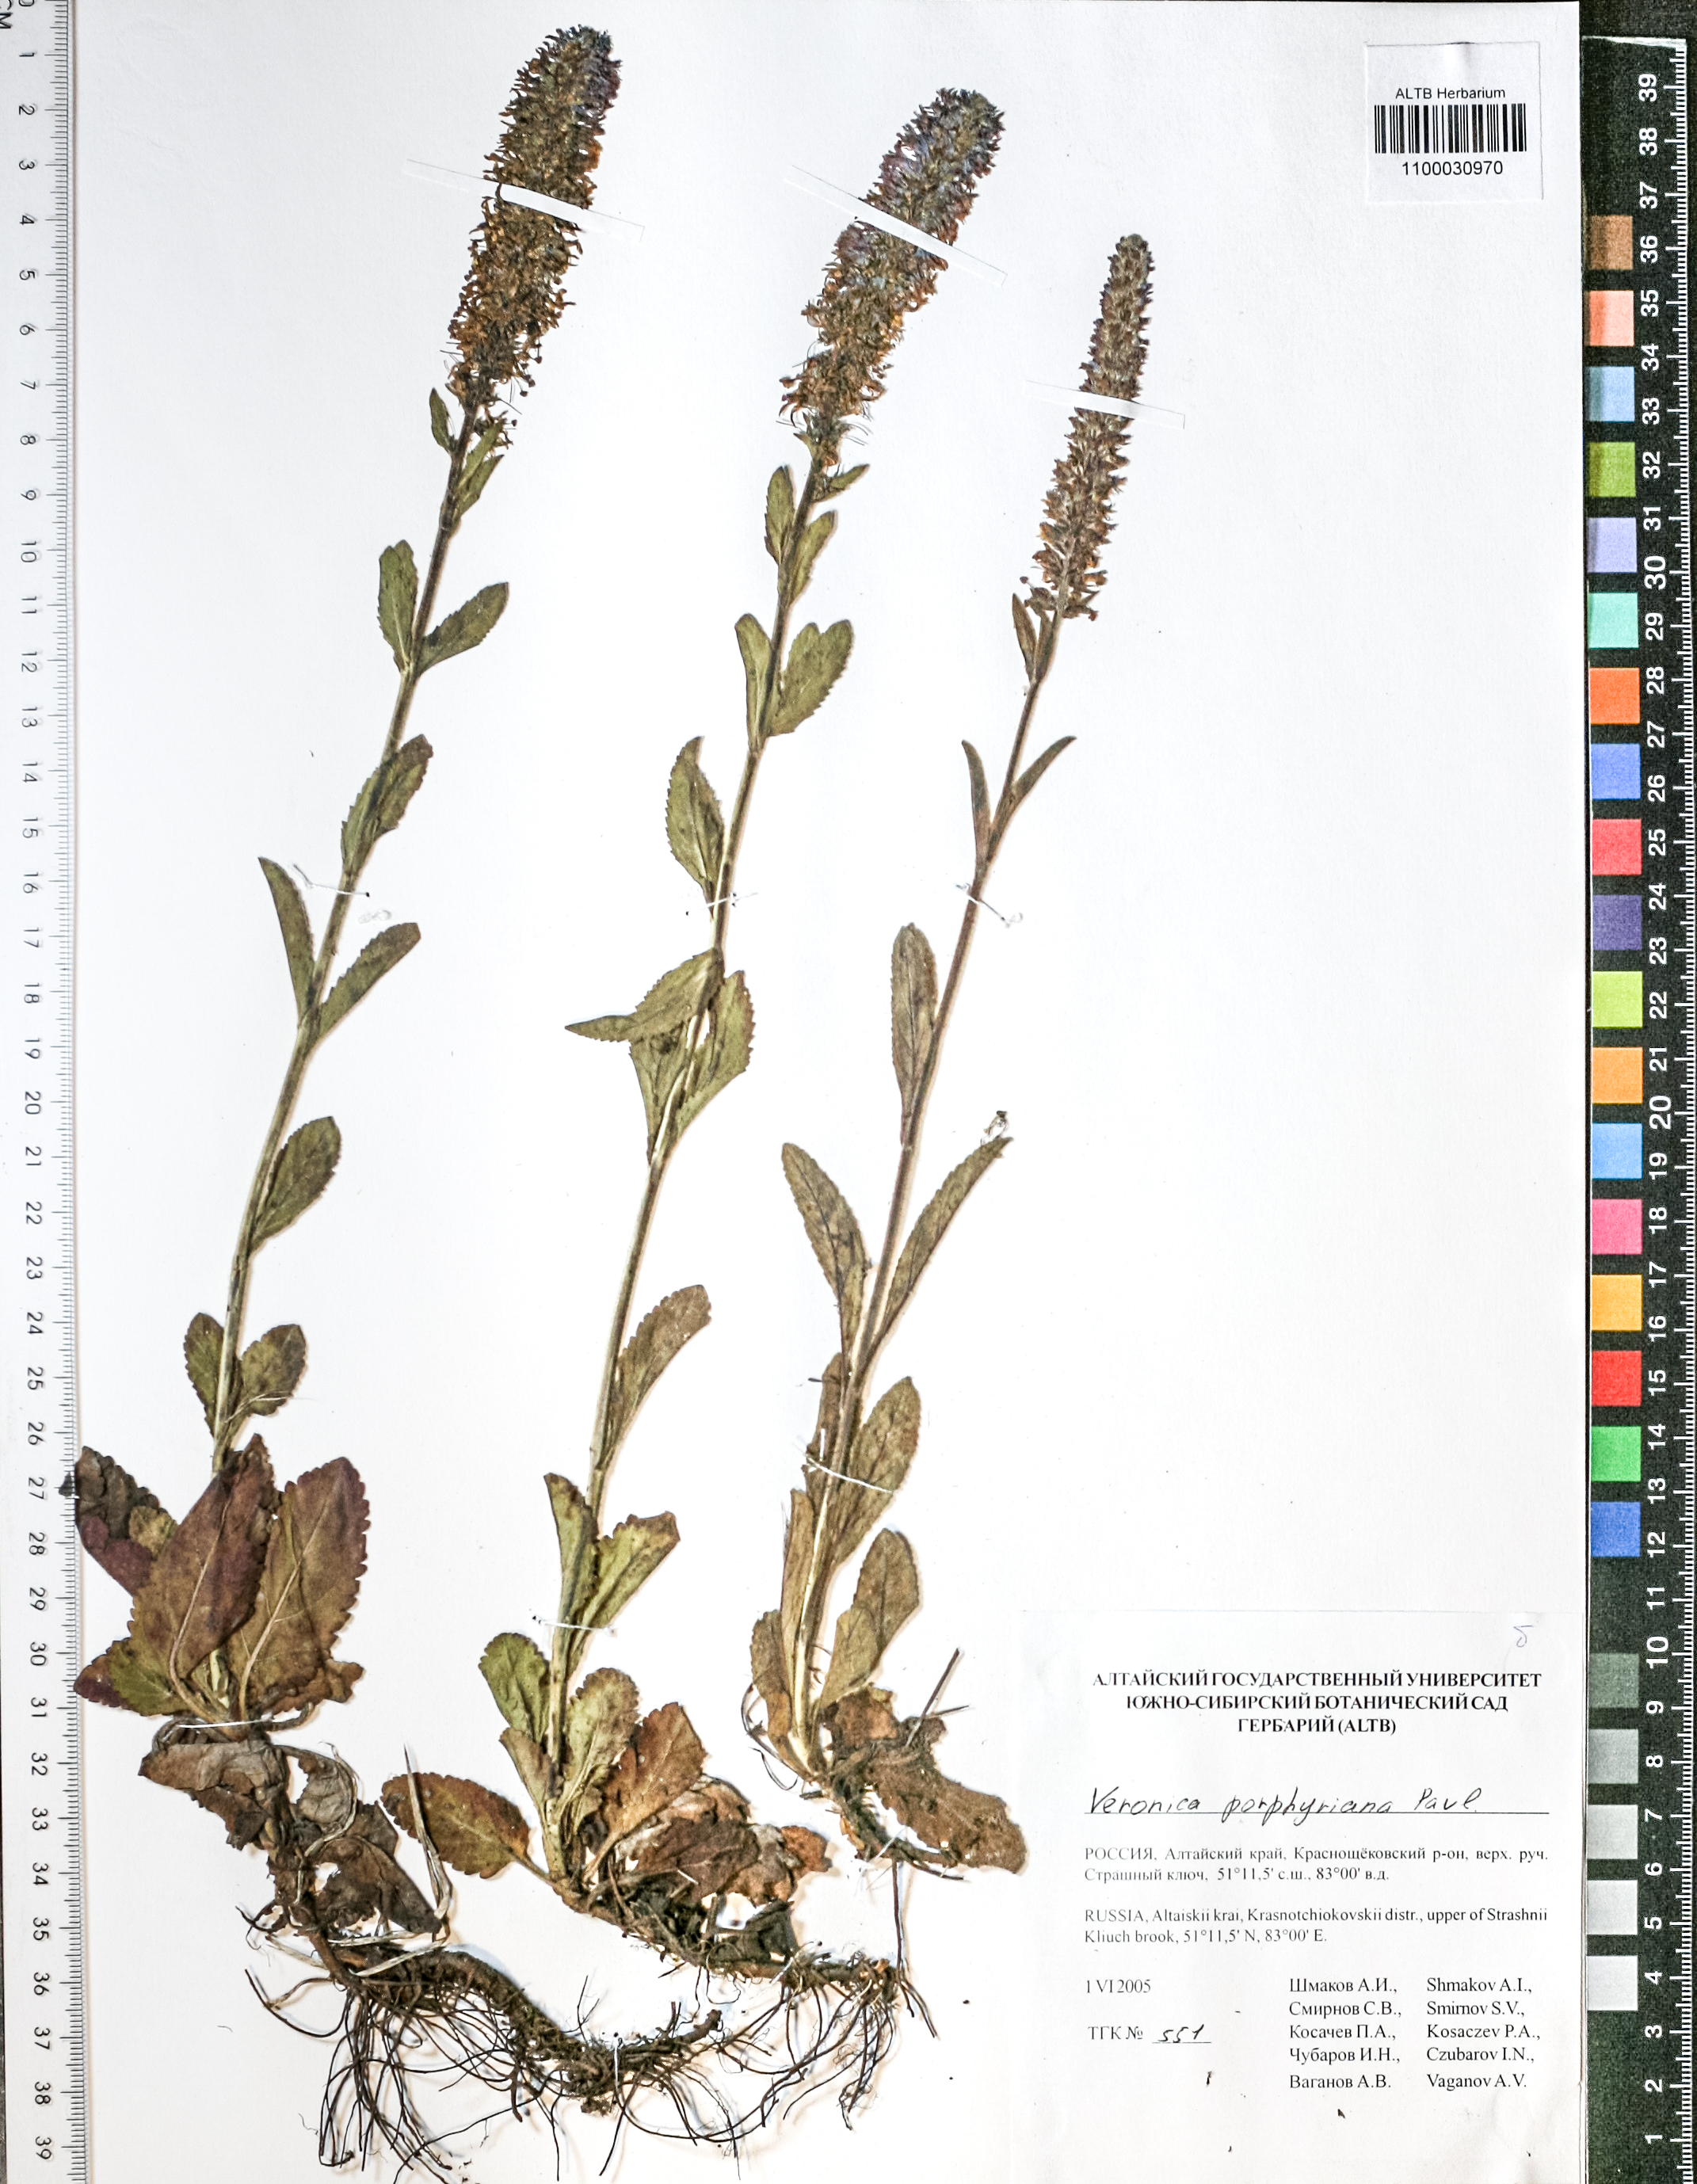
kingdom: Plantae
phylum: Tracheophyta
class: Magnoliopsida
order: Lamiales
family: Plantaginaceae
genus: Veronica
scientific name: Veronica porphyriana
